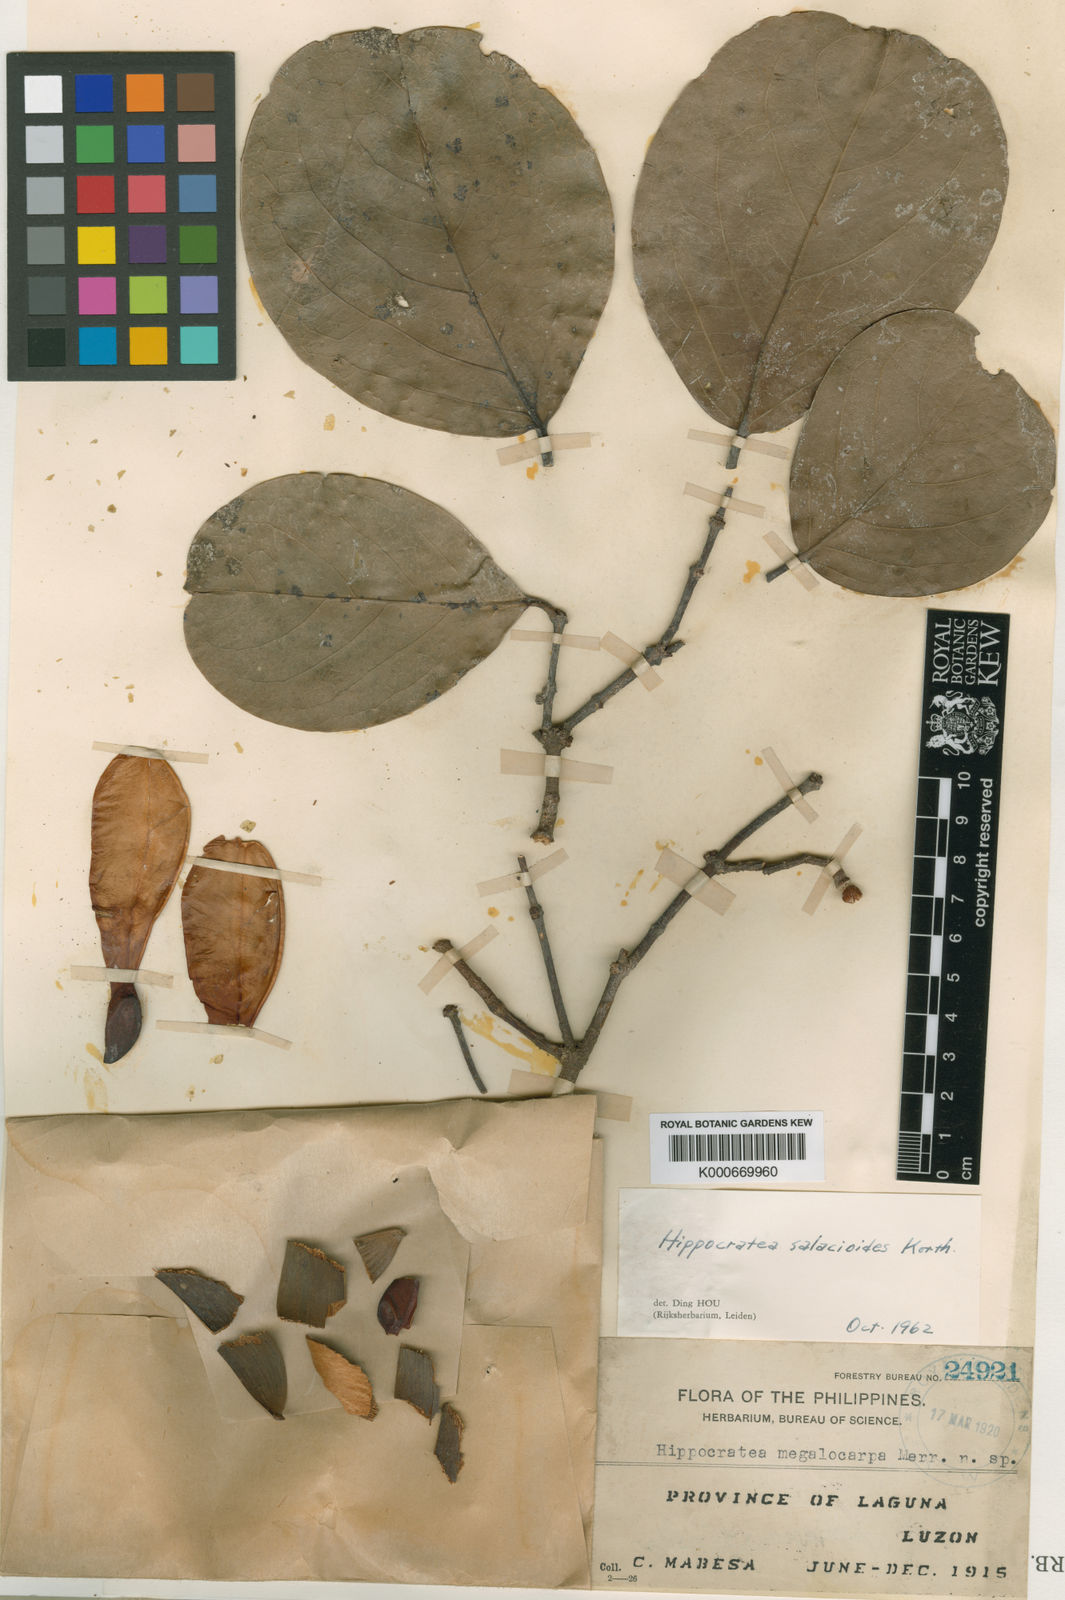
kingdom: Plantae
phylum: Tracheophyta
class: Magnoliopsida
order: Celastrales
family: Celastraceae
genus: Arnicratea
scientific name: Arnicratea grahamii
